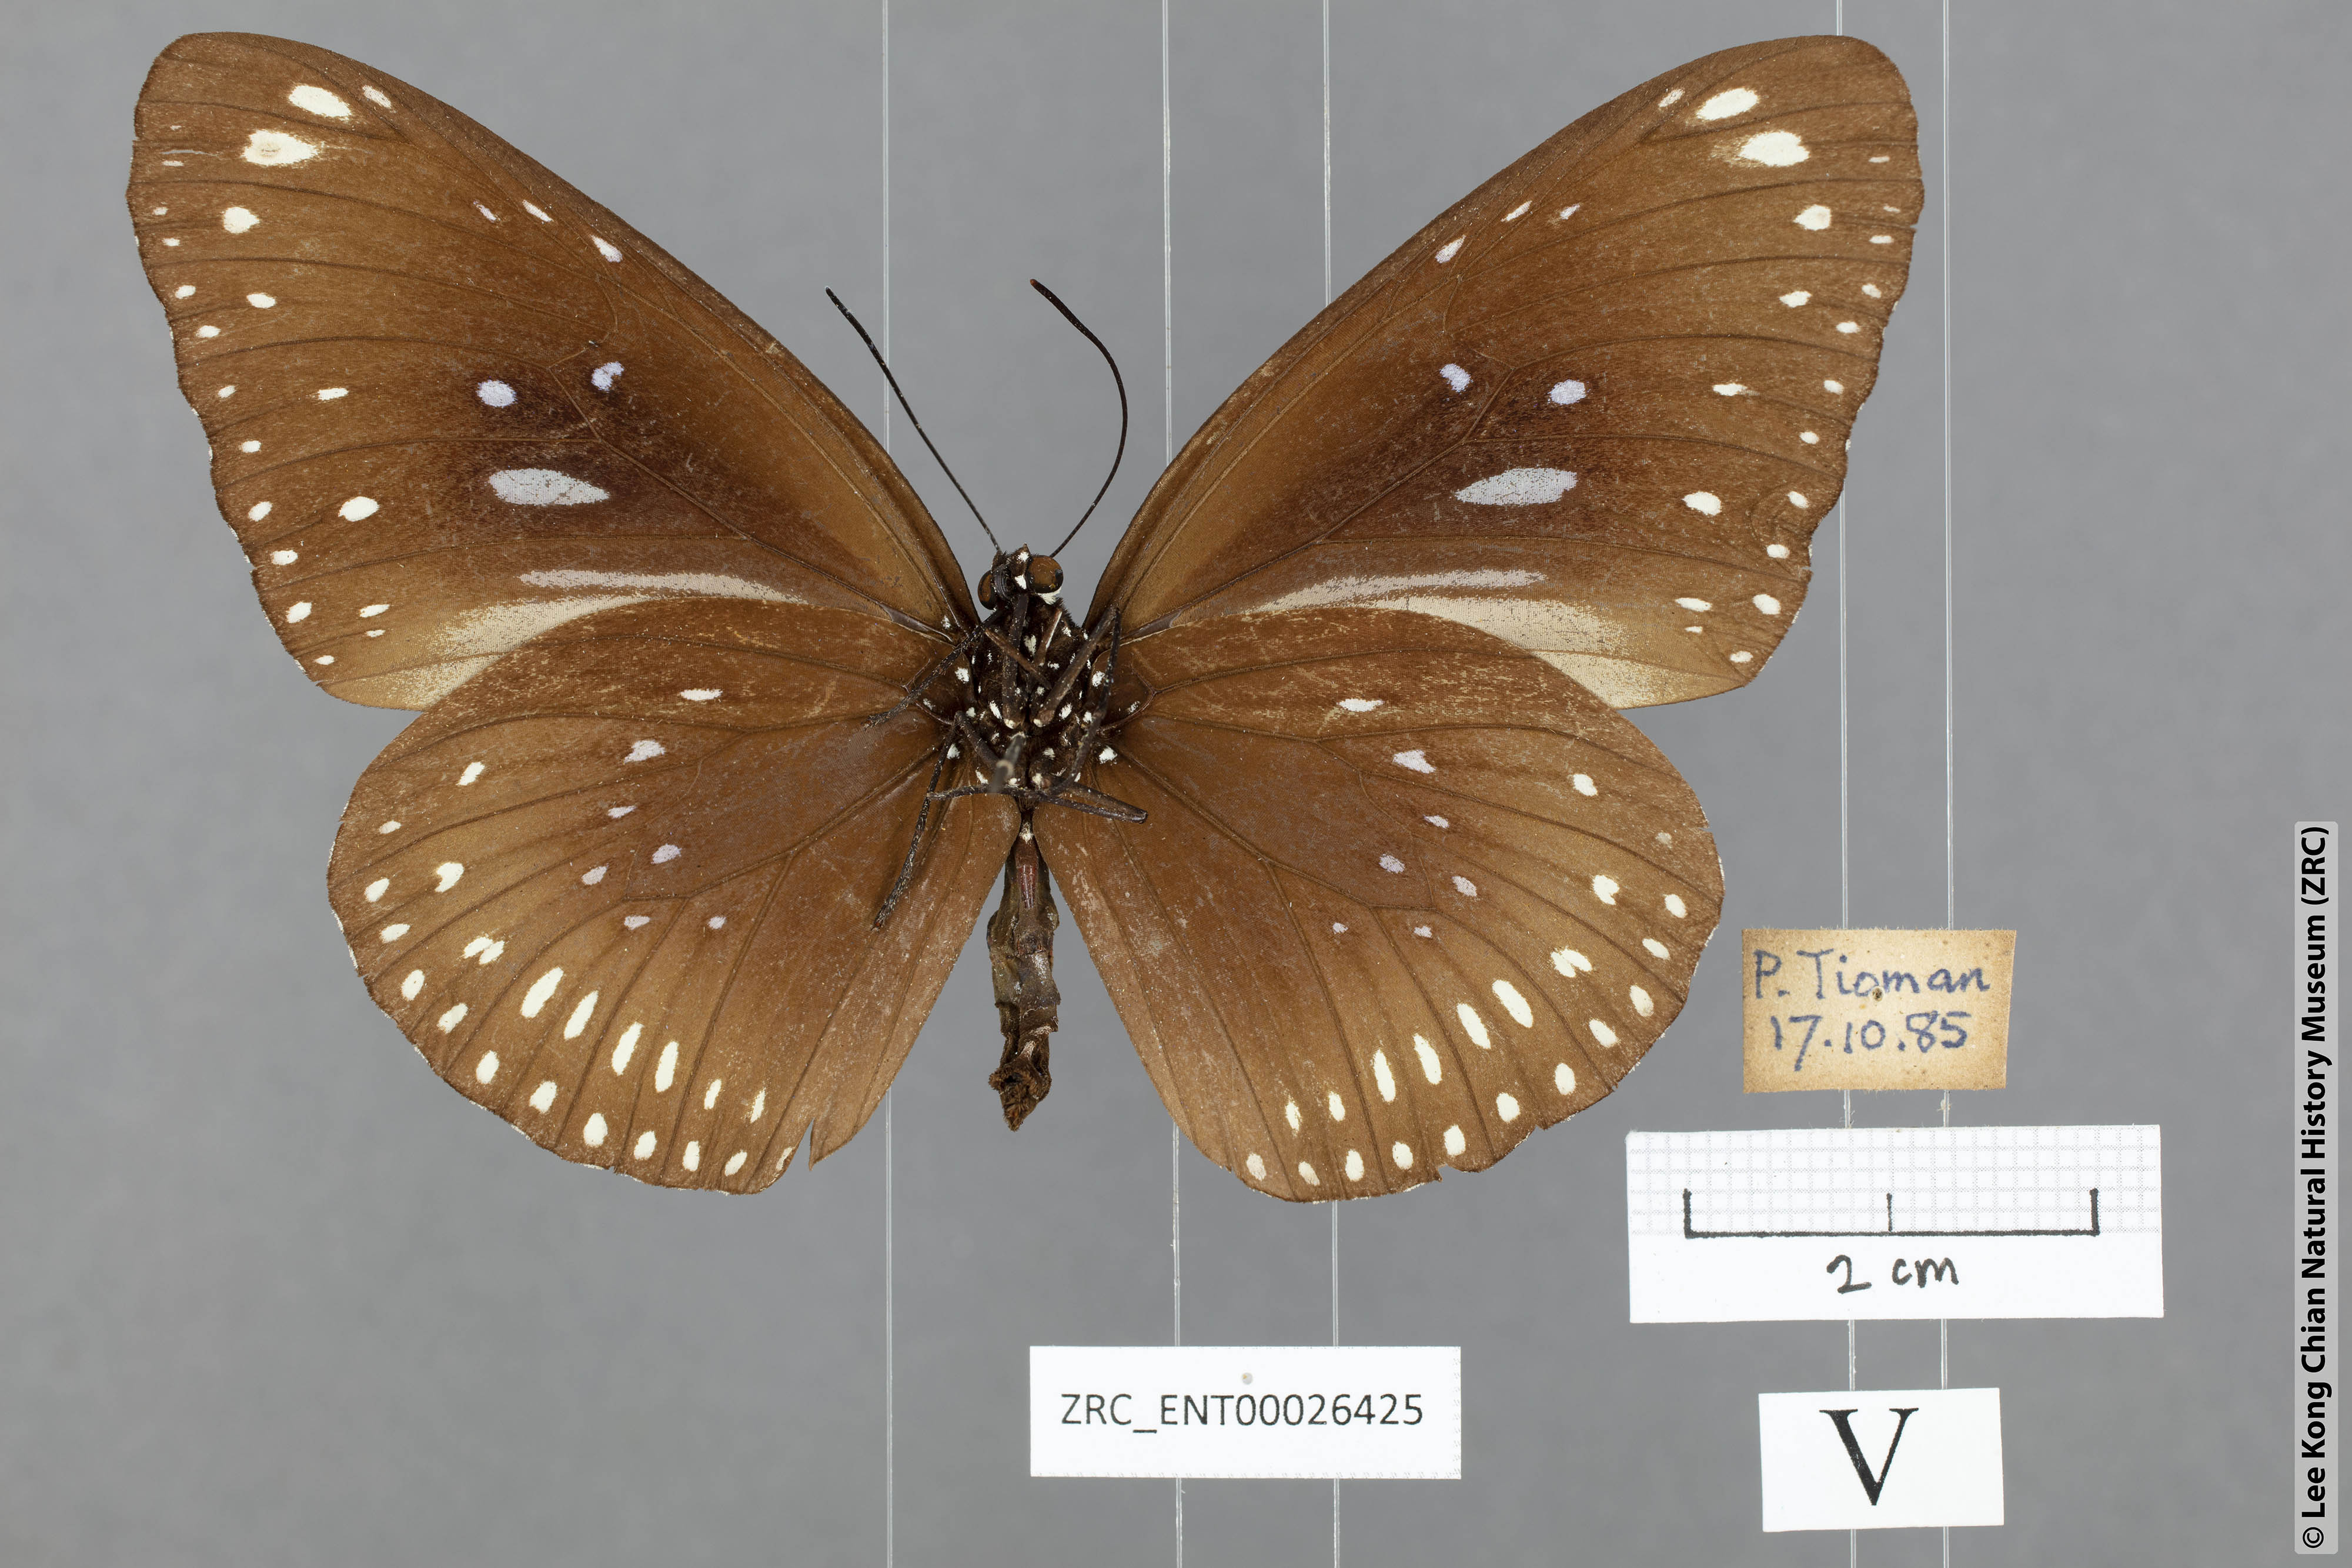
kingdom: Animalia
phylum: Arthropoda
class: Insecta
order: Lepidoptera
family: Nymphalidae
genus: Euploea
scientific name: Euploea crameri
